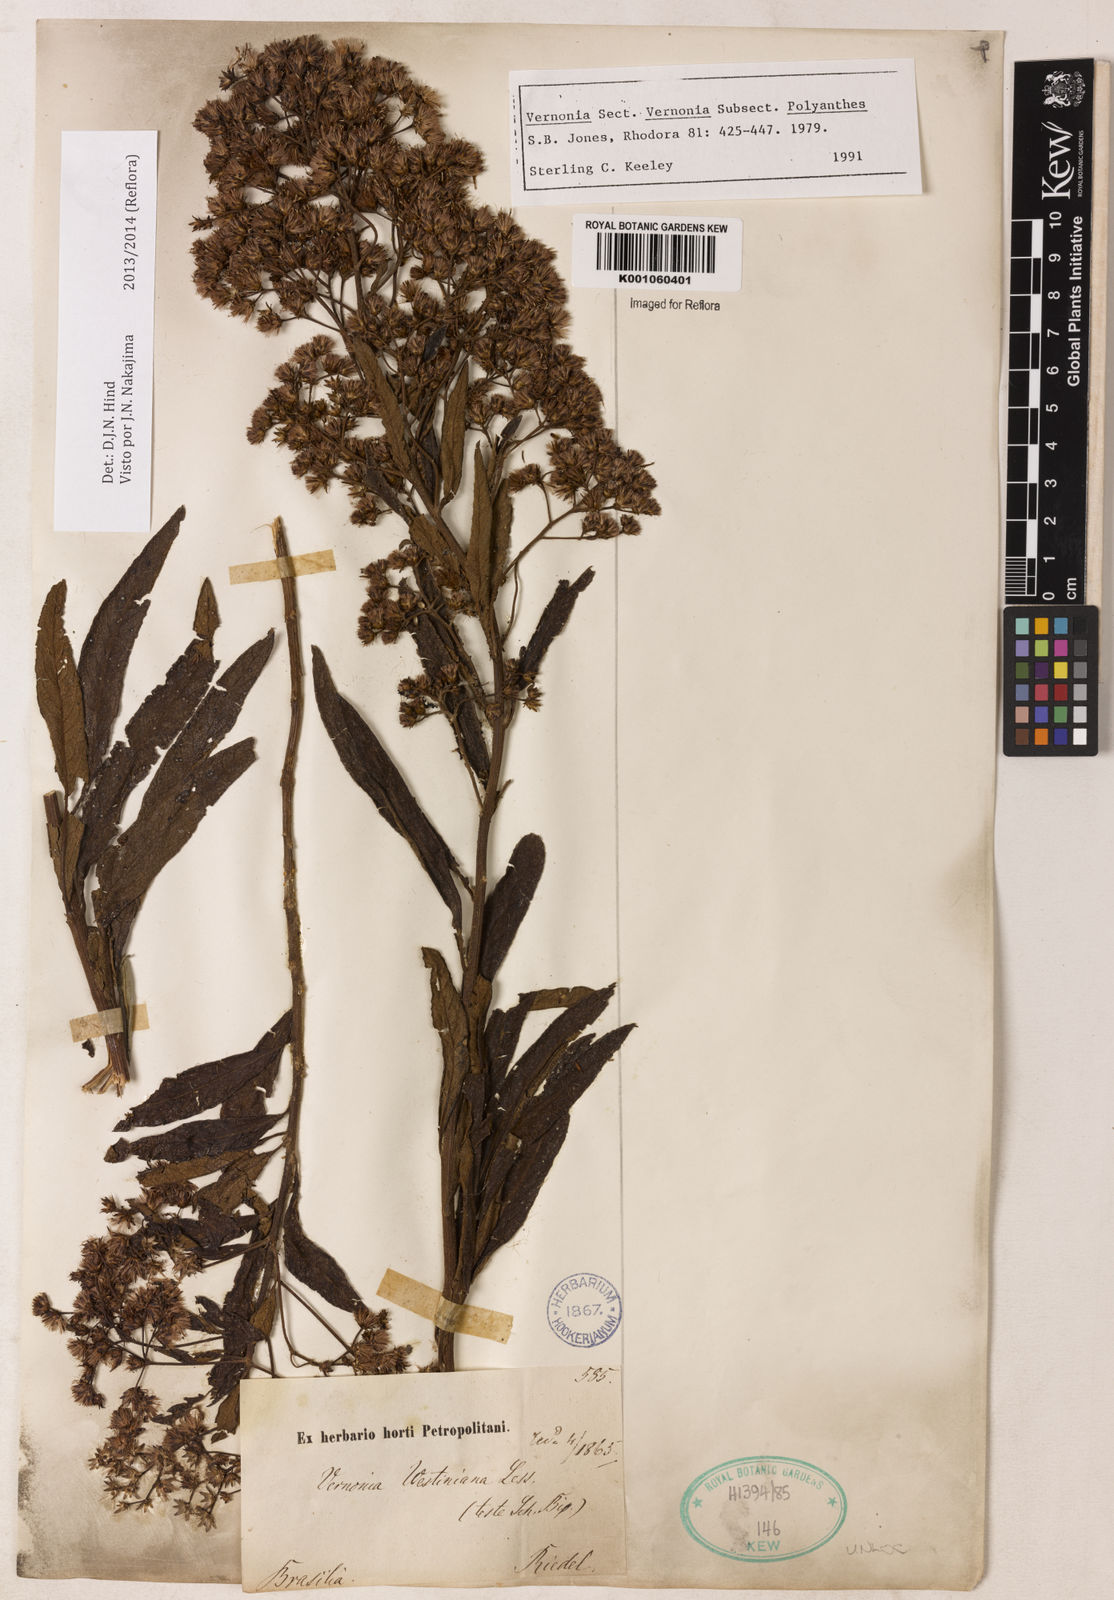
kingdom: Plantae
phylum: Tracheophyta
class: Magnoliopsida
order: Asterales
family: Asteraceae
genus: Vernonanthura
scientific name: Vernonanthura westiniana
